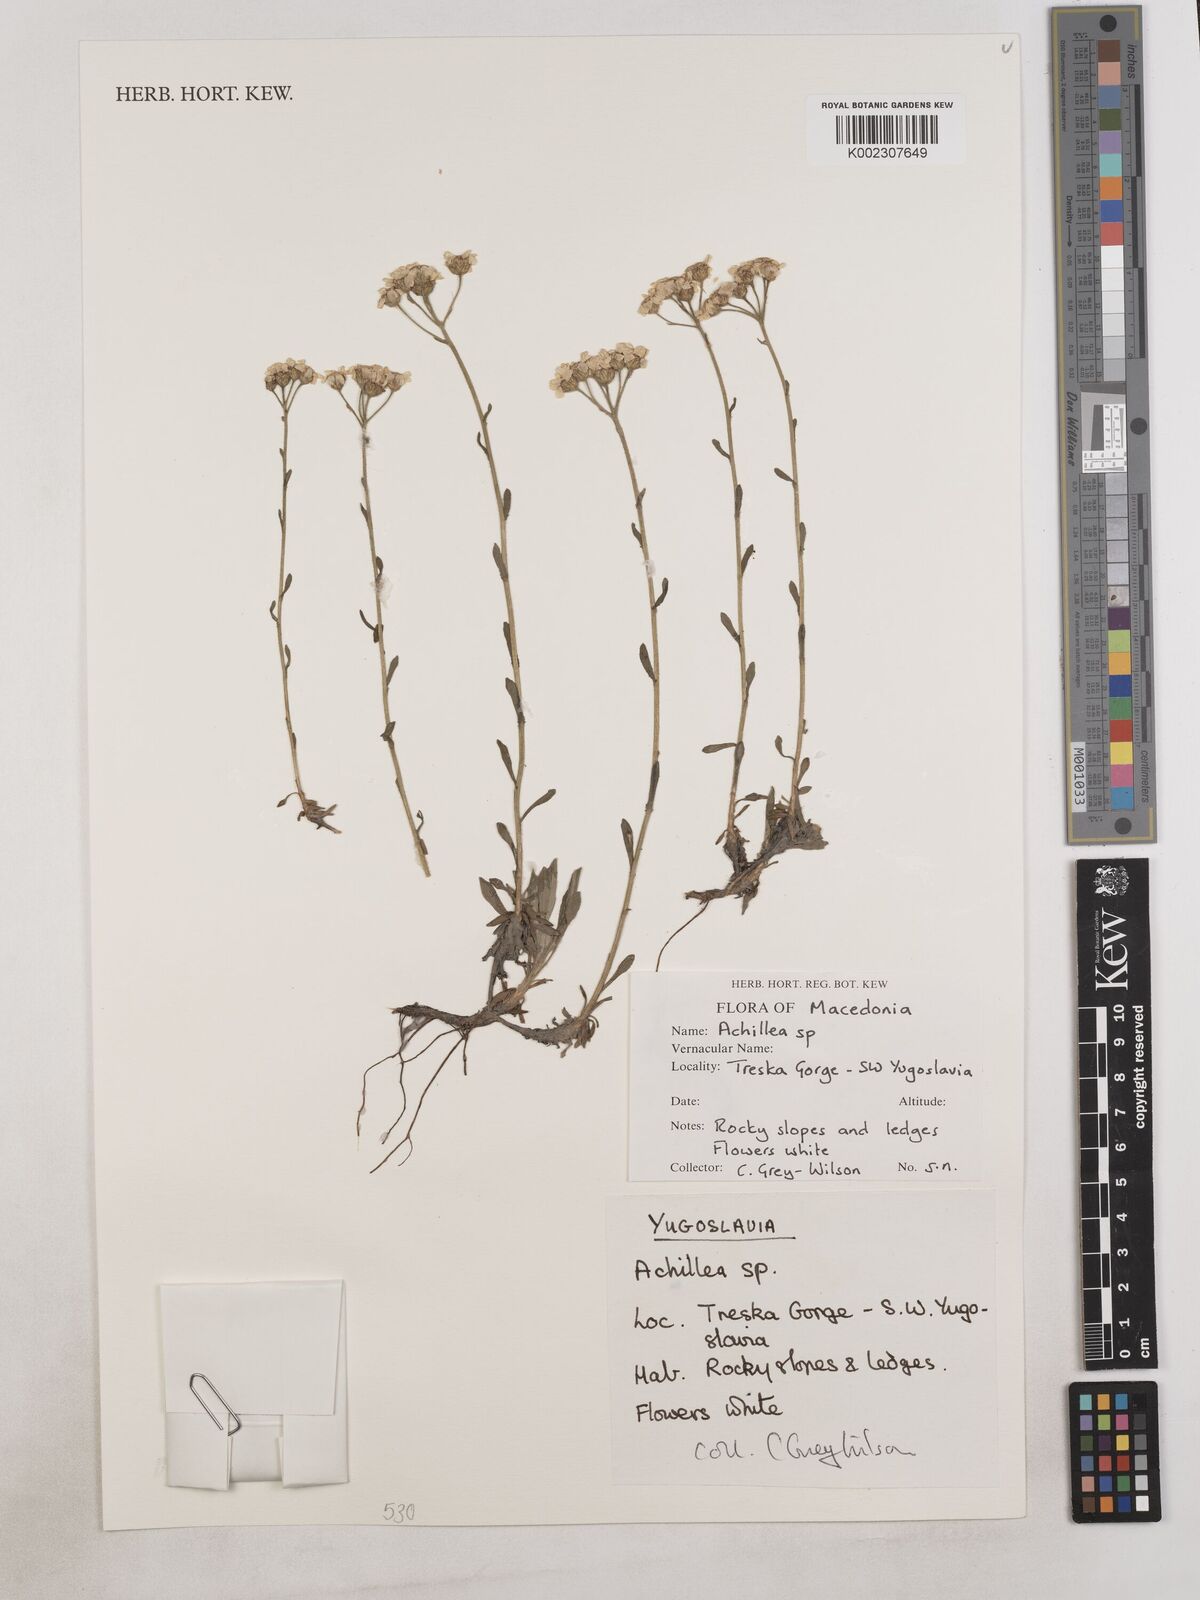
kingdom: Plantae
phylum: Tracheophyta
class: Magnoliopsida
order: Asterales
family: Asteraceae
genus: Achillea
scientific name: Achillea
